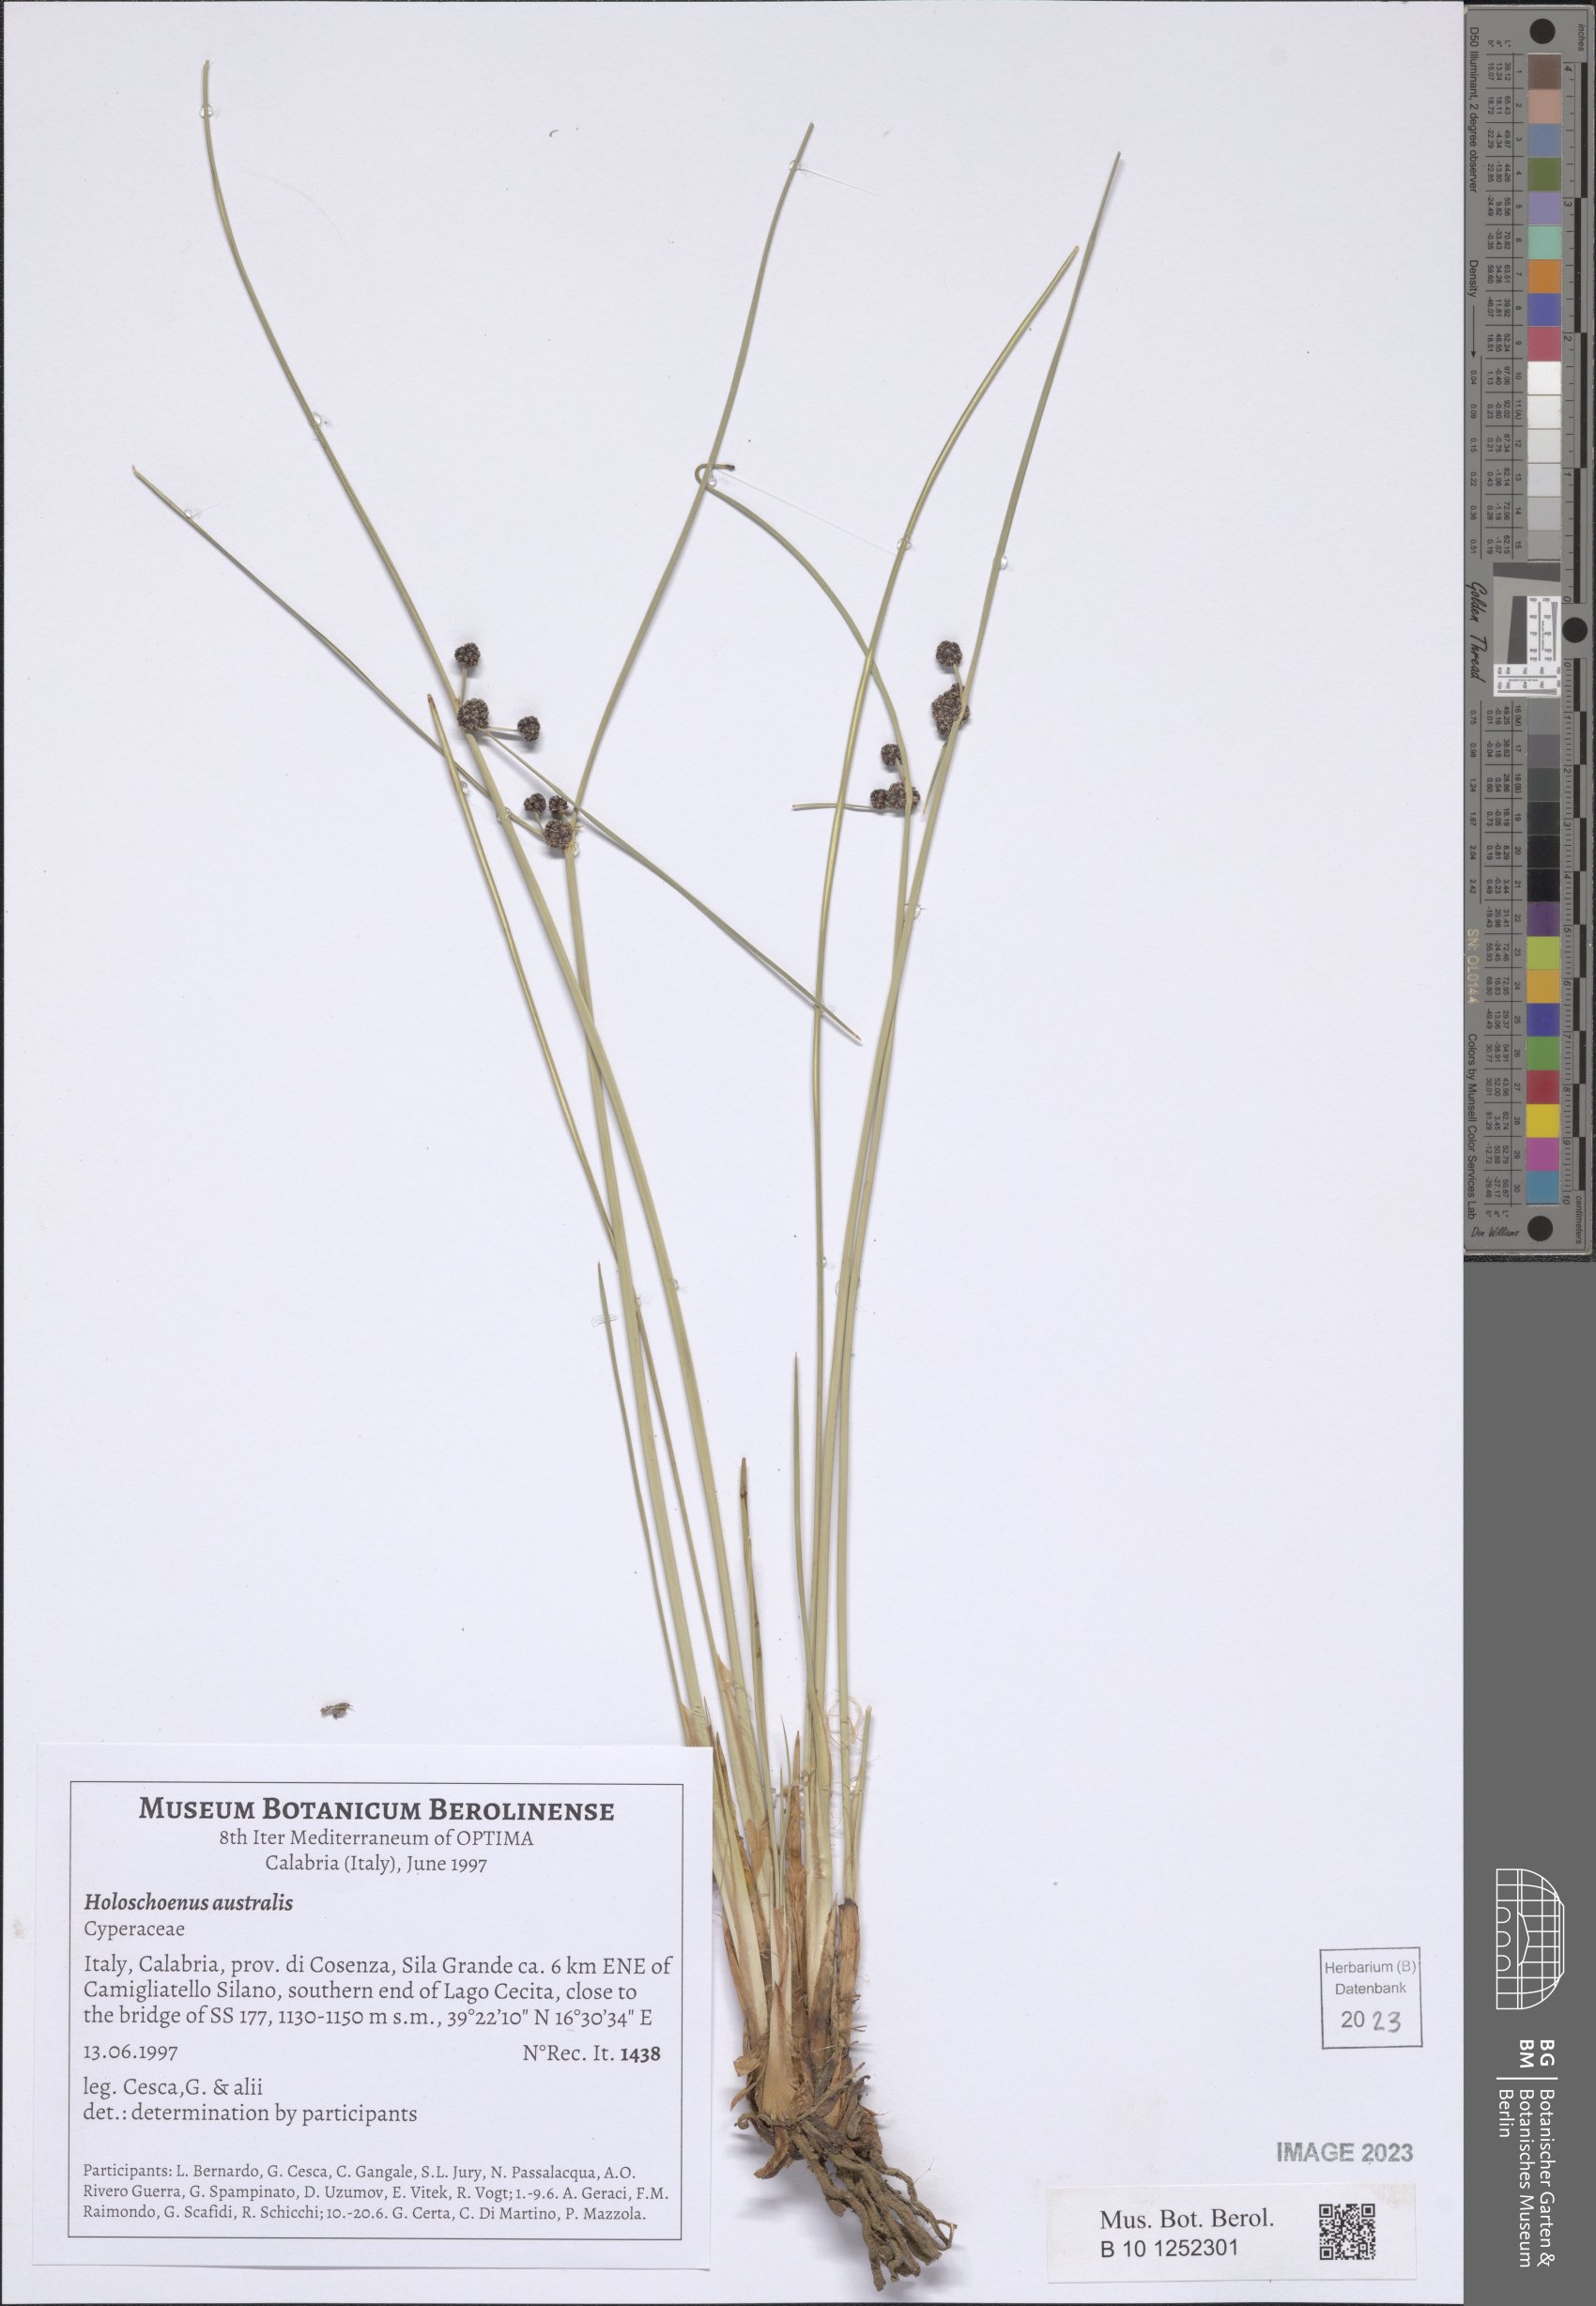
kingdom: Plantae
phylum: Tracheophyta
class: Liliopsida
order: Poales
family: Cyperaceae
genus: Scirpoides
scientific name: Scirpoides holoschoenus
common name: Round-headed club-rush
